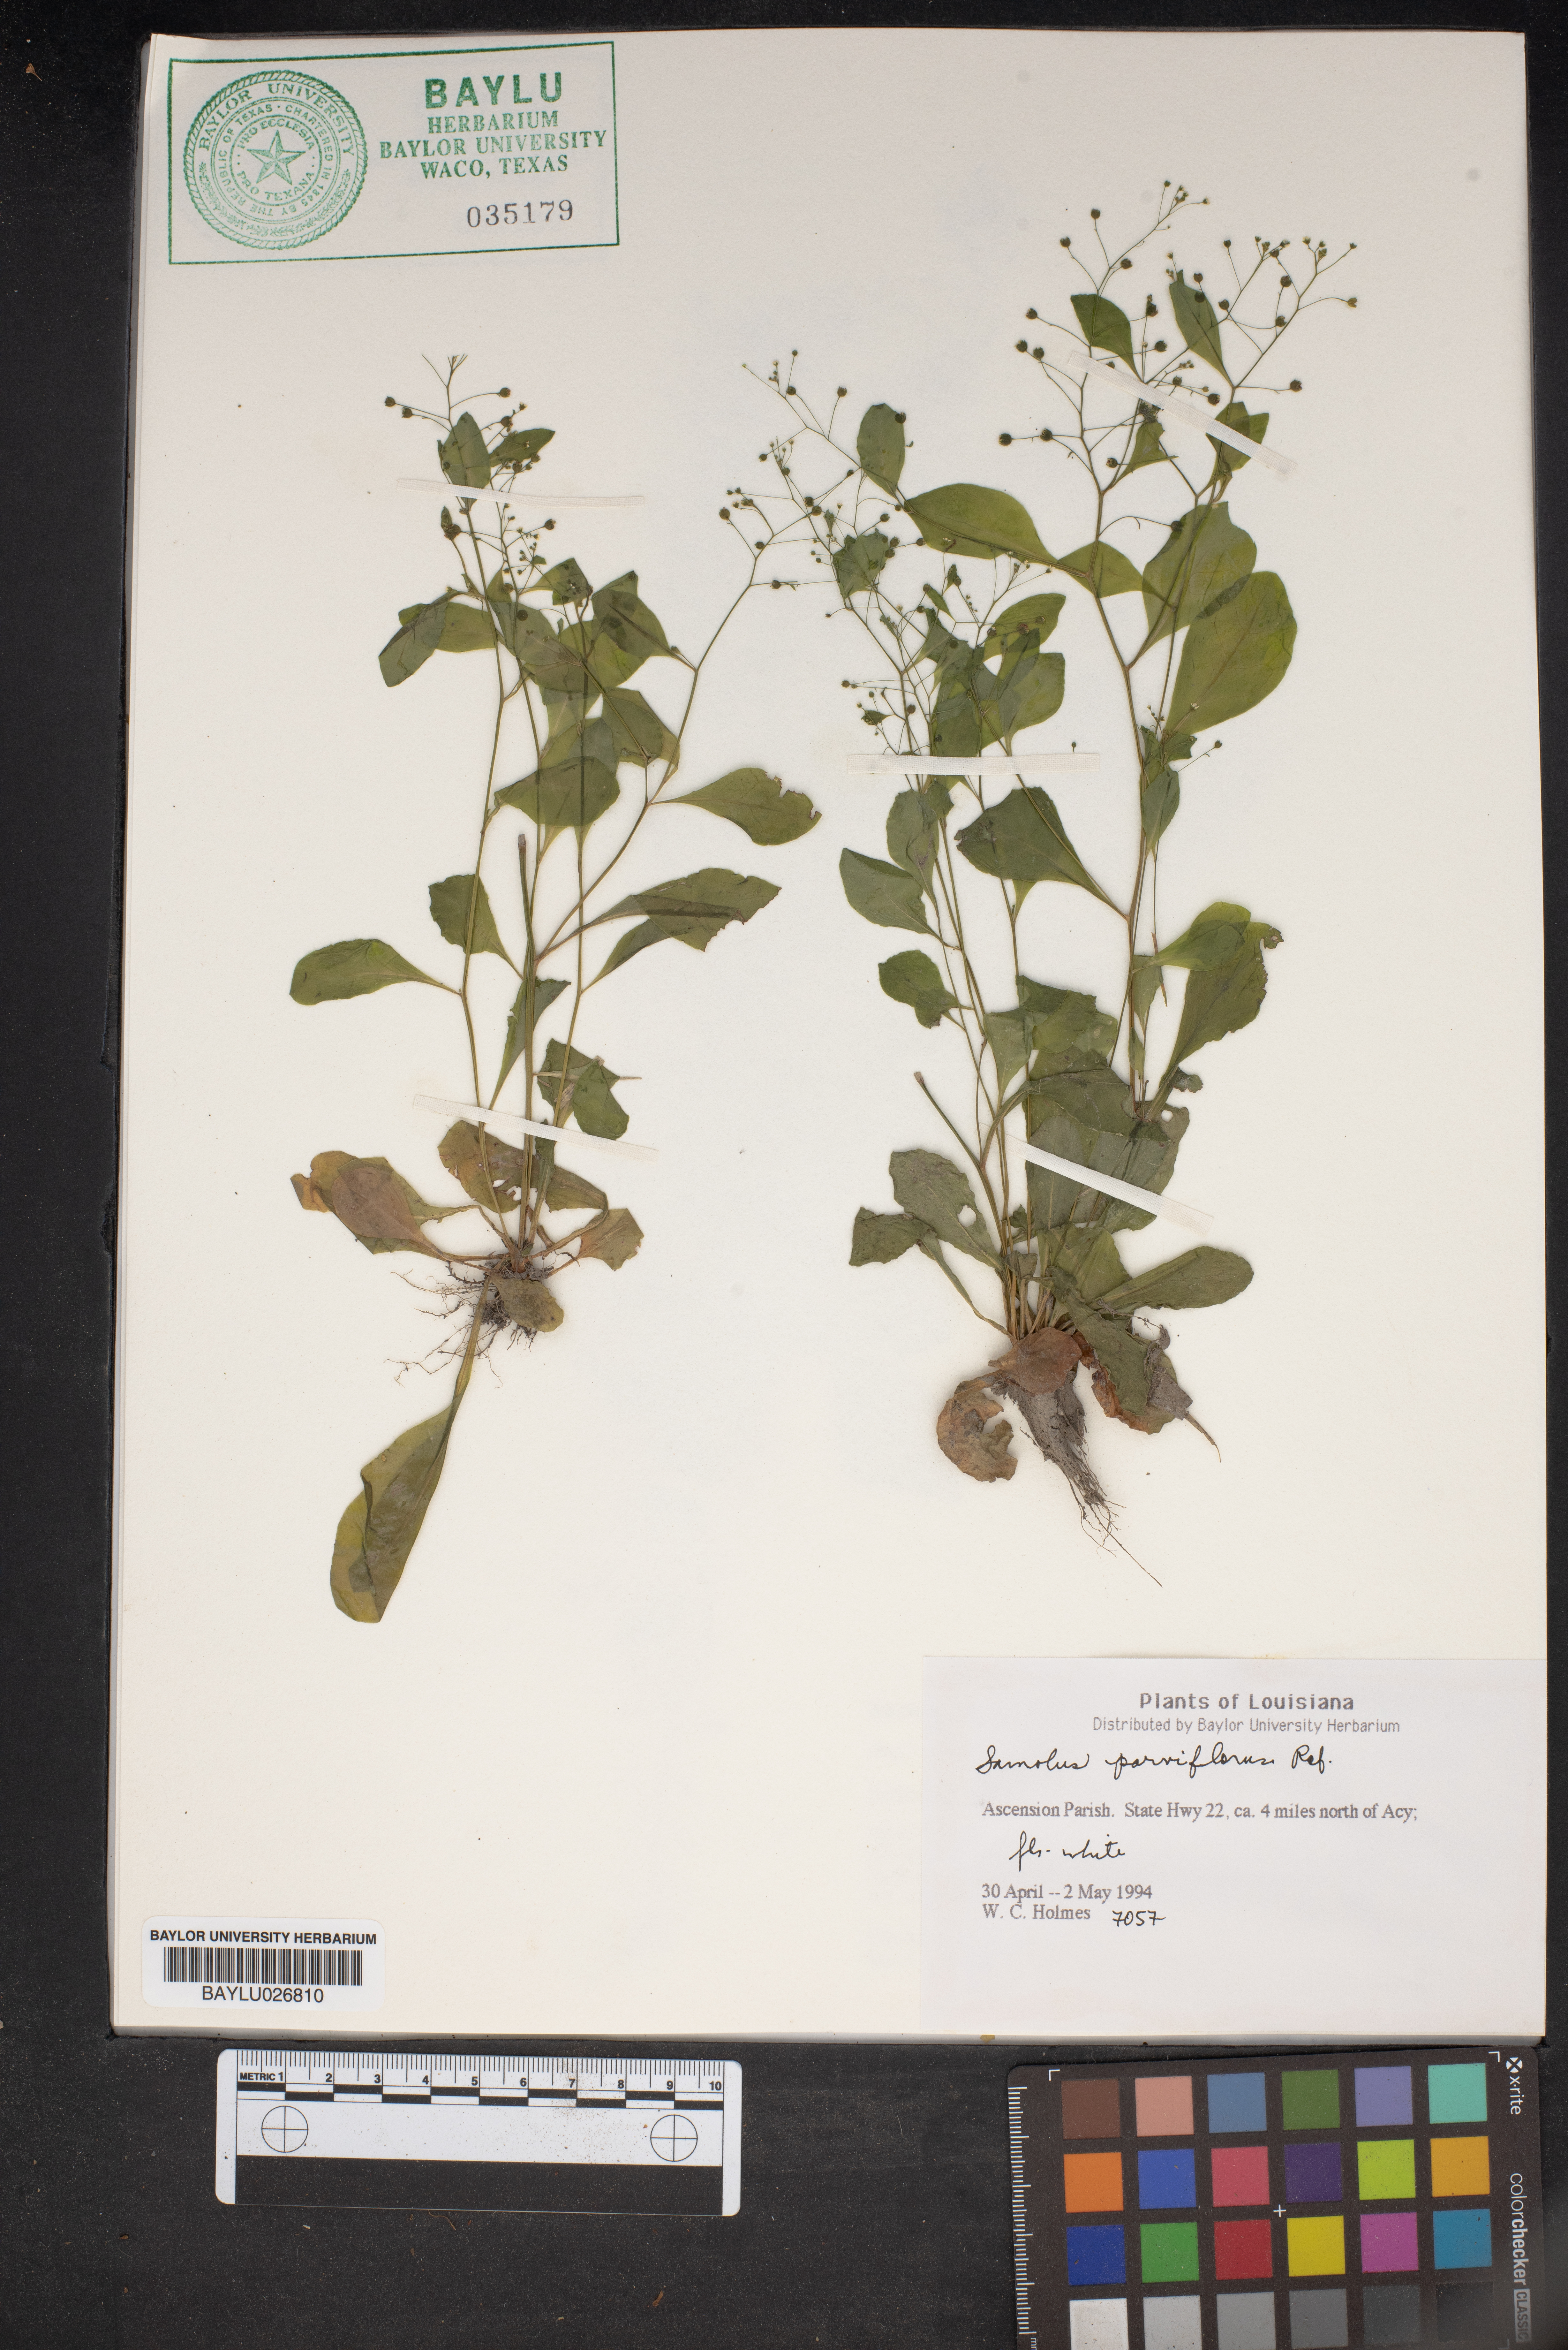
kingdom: Plantae
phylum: Tracheophyta
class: Magnoliopsida
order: Ericales
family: Primulaceae
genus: Samolus
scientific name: Samolus parviflorus
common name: False water pimpernel
